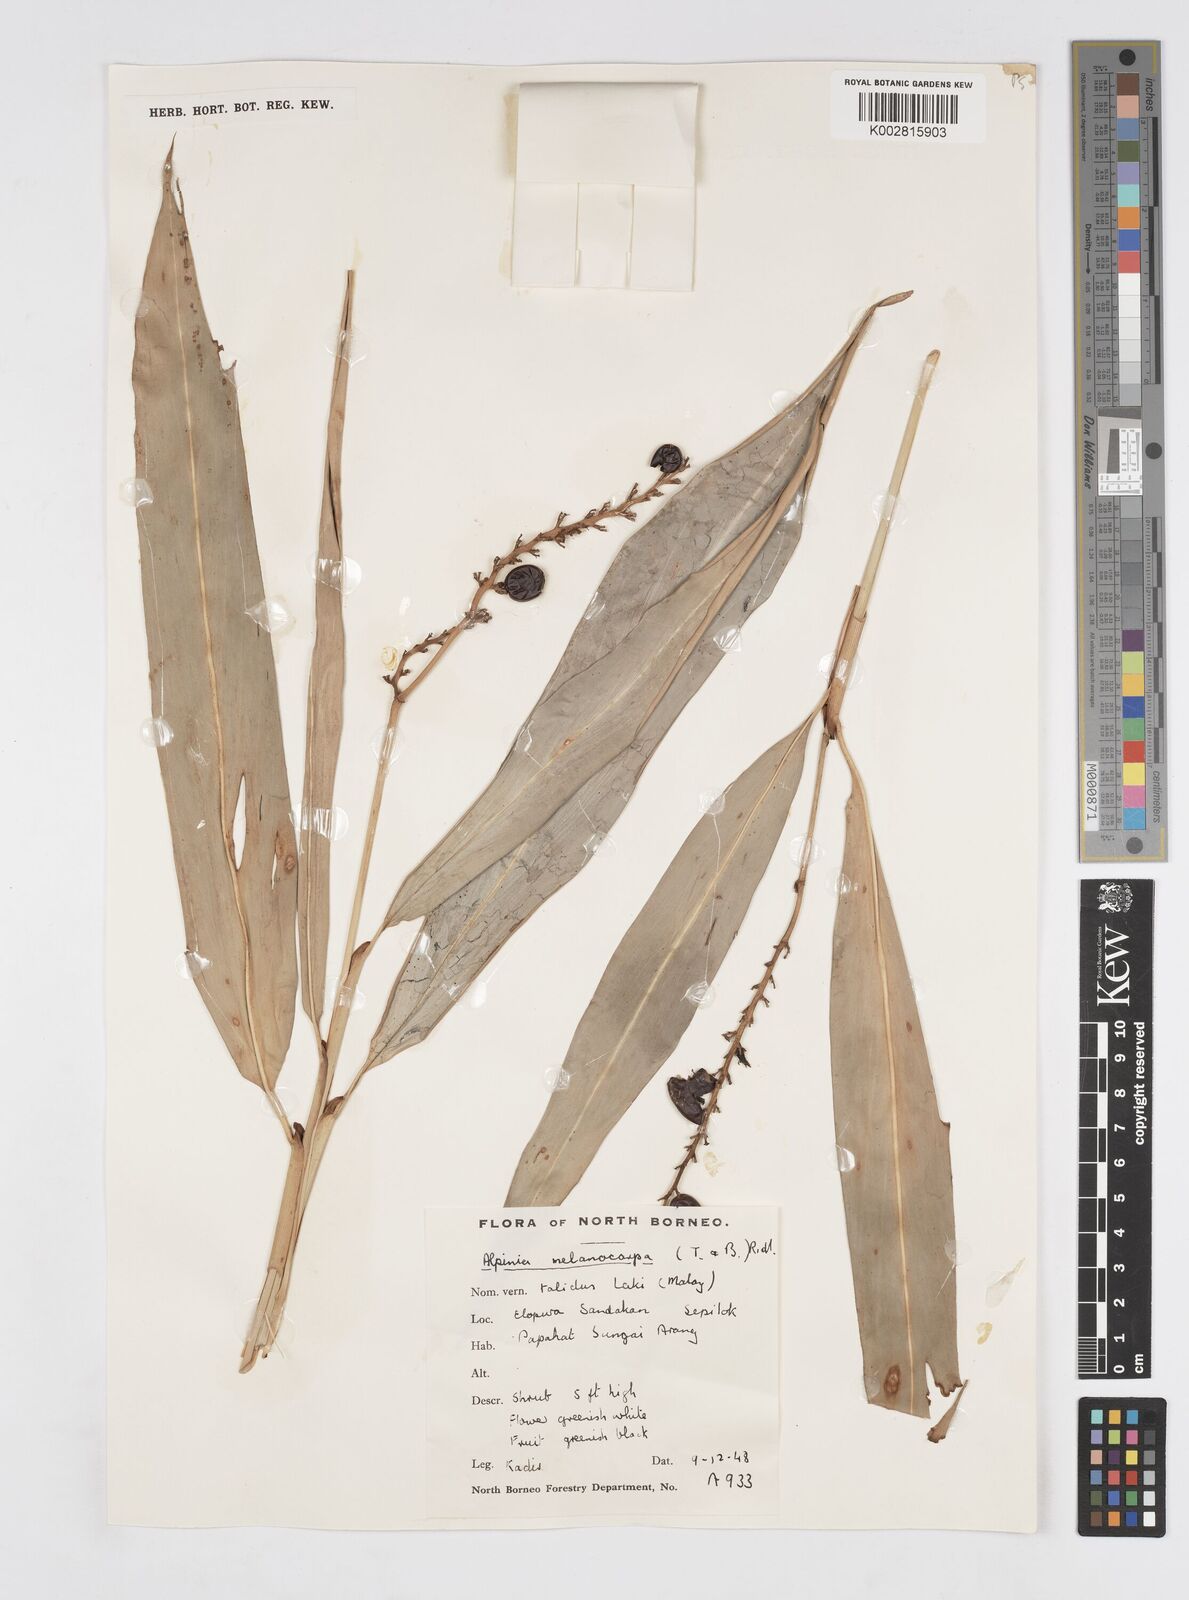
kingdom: Plantae
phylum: Tracheophyta
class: Liliopsida
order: Zingiberales
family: Zingiberaceae
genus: Alpinia
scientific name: Alpinia aquatica
